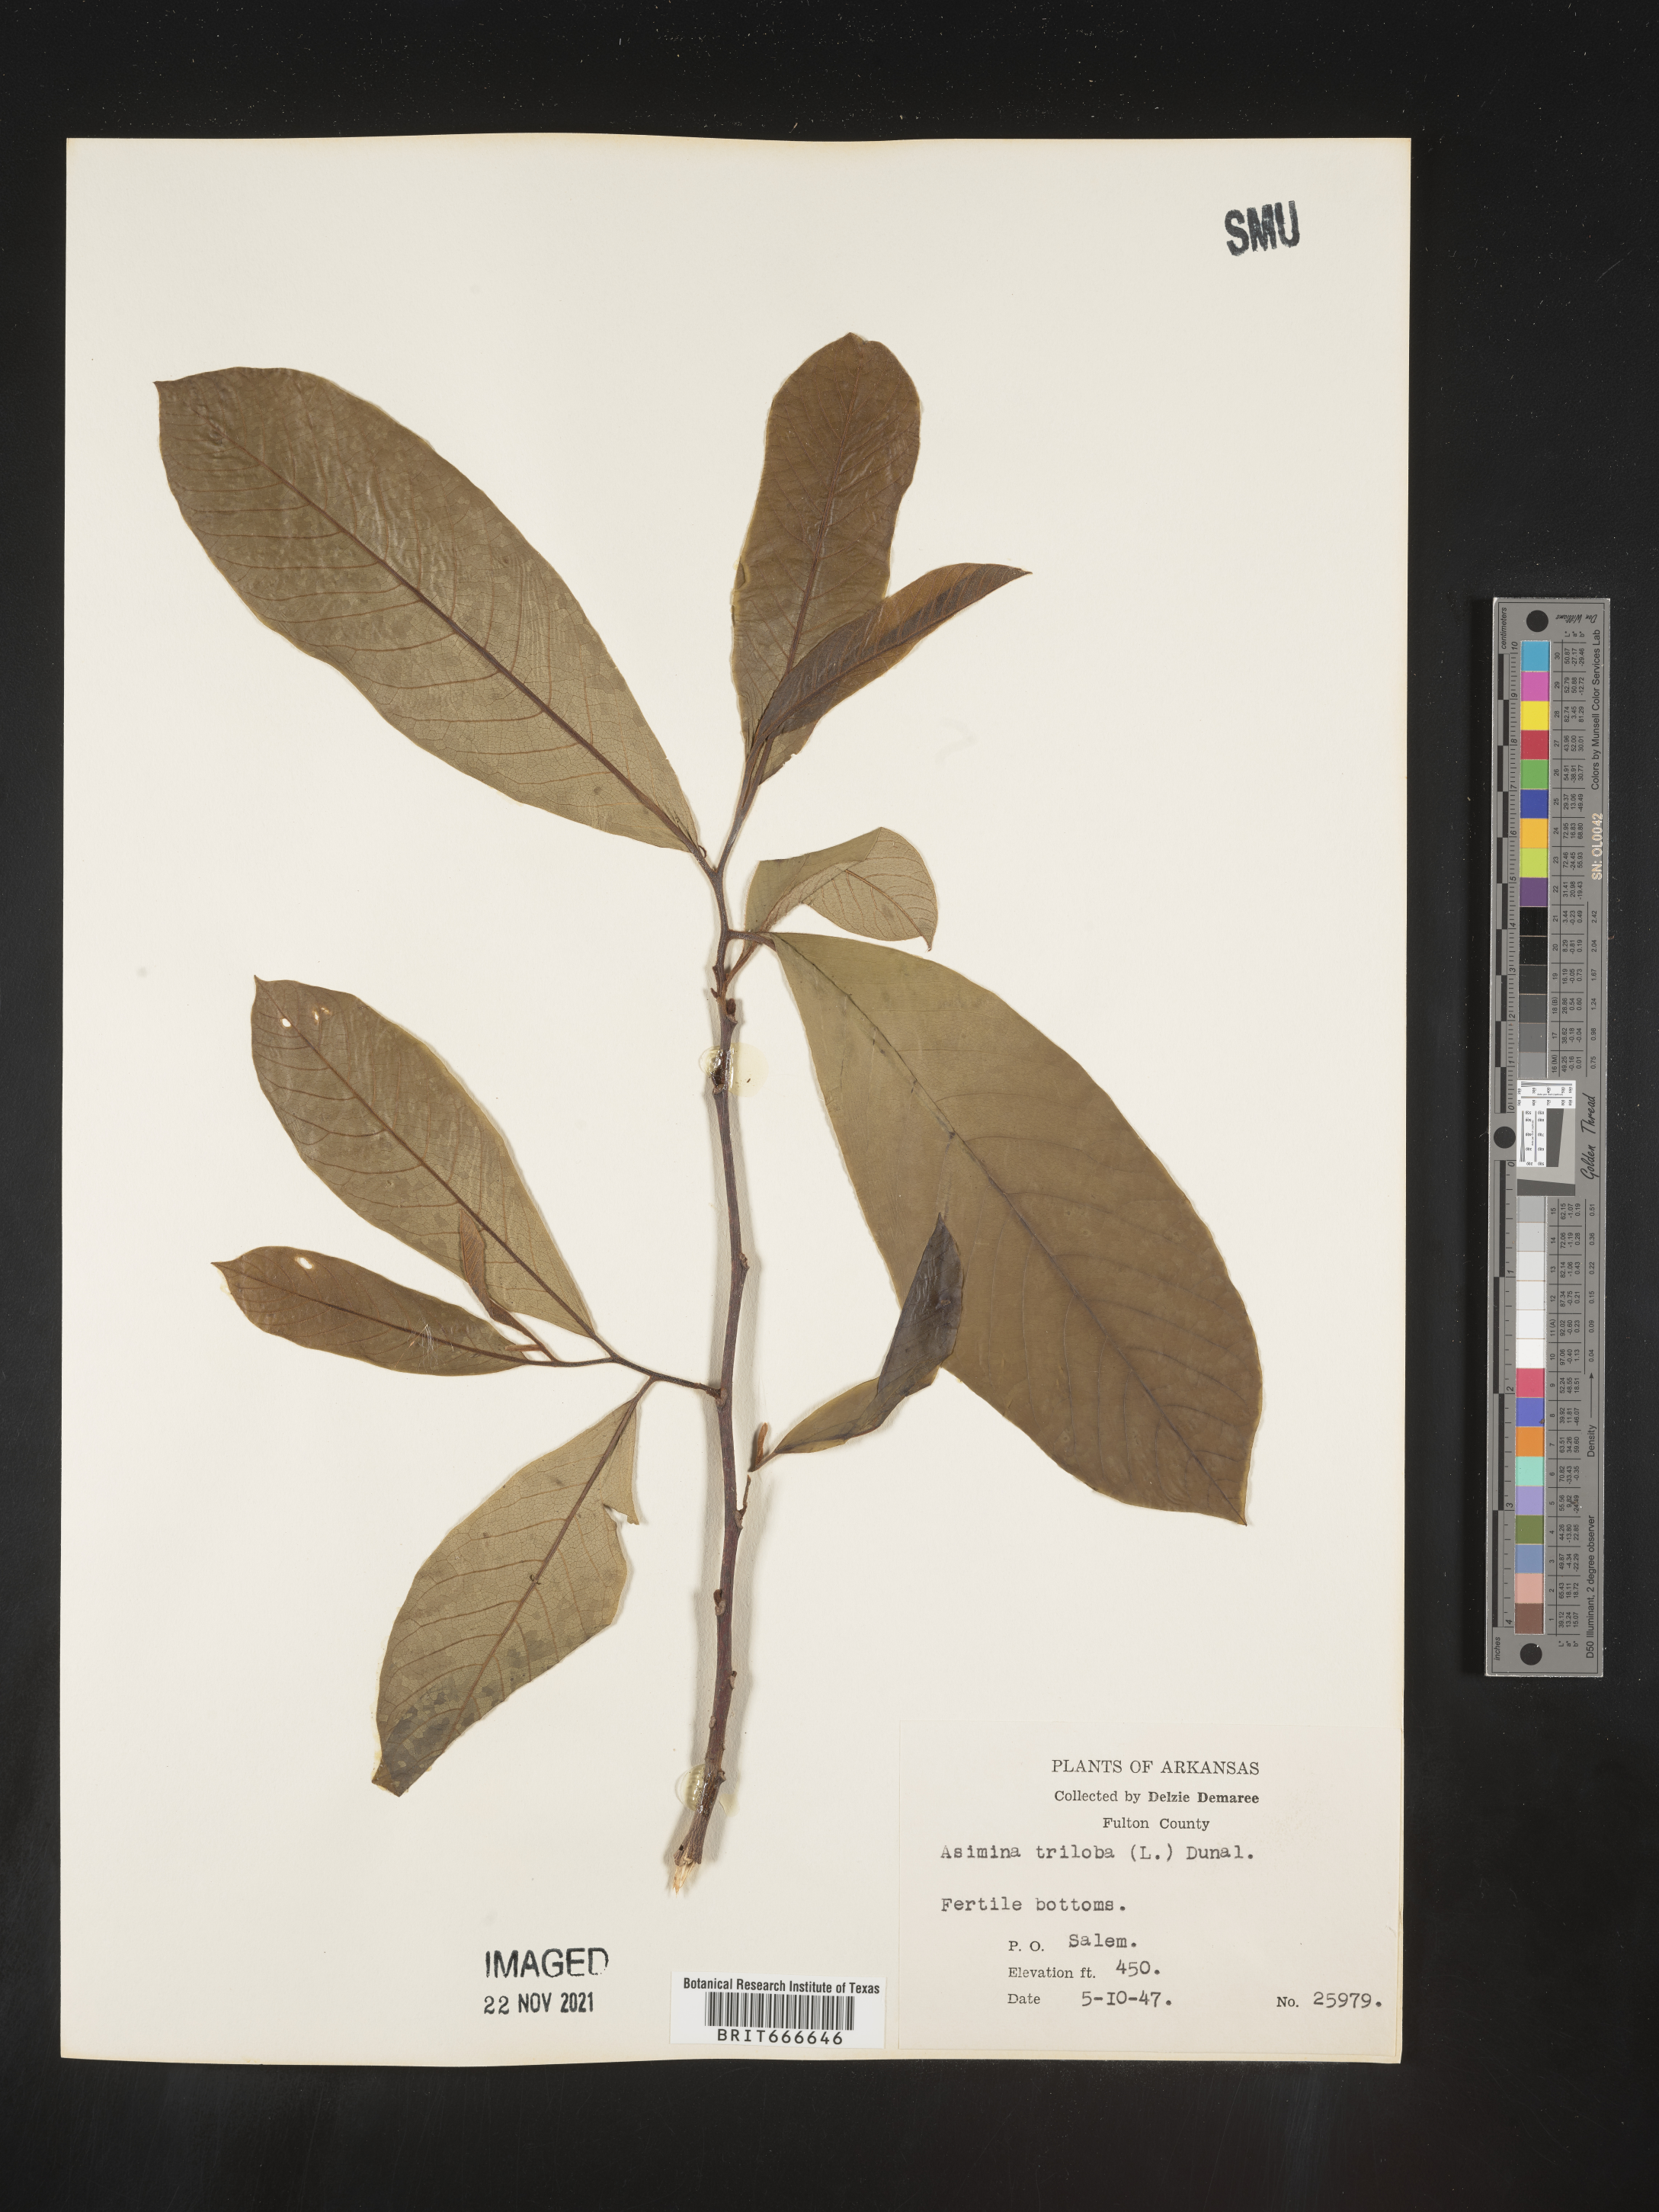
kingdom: Plantae
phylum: Tracheophyta
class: Magnoliopsida
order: Magnoliales
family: Annonaceae
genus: Asimina
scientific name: Asimina triloba
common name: Dog-banana
